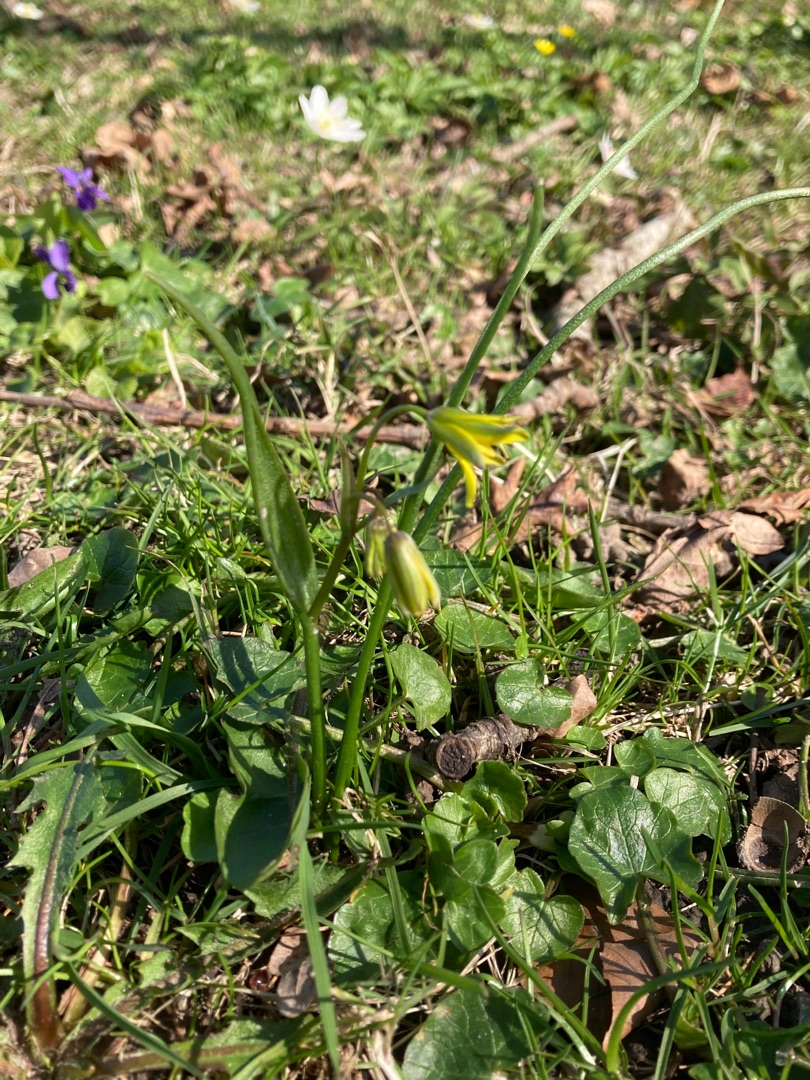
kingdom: Plantae
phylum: Tracheophyta
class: Liliopsida
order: Liliales
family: Liliaceae
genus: Gagea
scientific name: Gagea spathacea
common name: Hylster-guldstjerne
